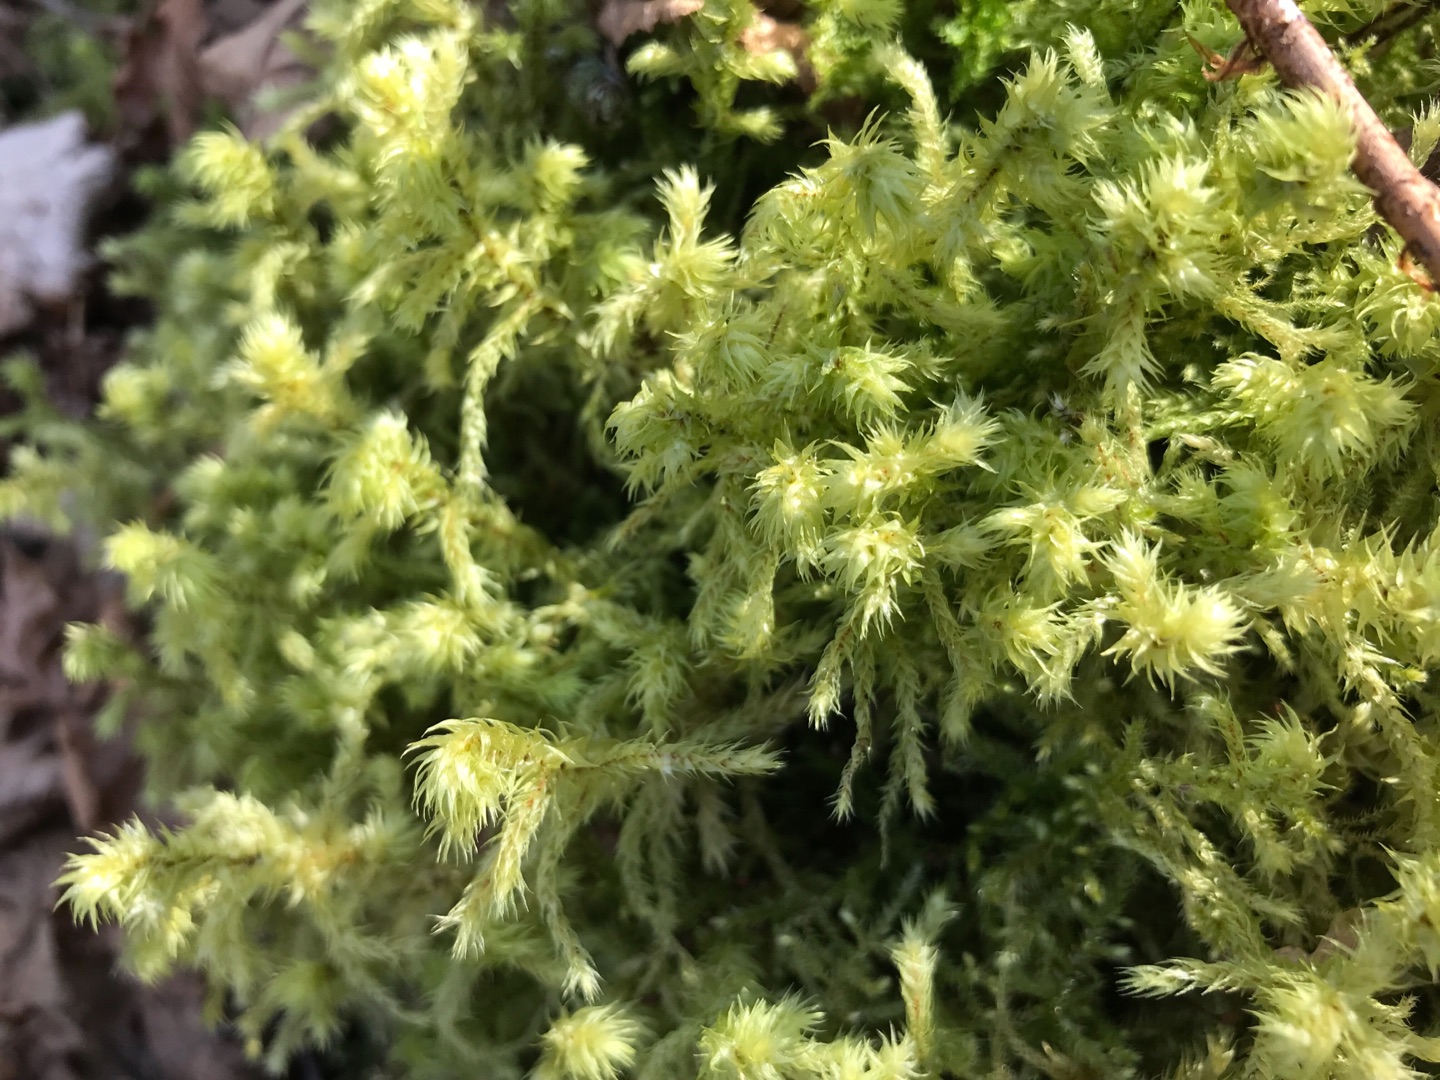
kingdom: Plantae
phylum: Bryophyta
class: Bryopsida
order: Hypnales
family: Hylocomiaceae
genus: Hylocomiadelphus
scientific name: Hylocomiadelphus triquetrus
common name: Stor kransemos
